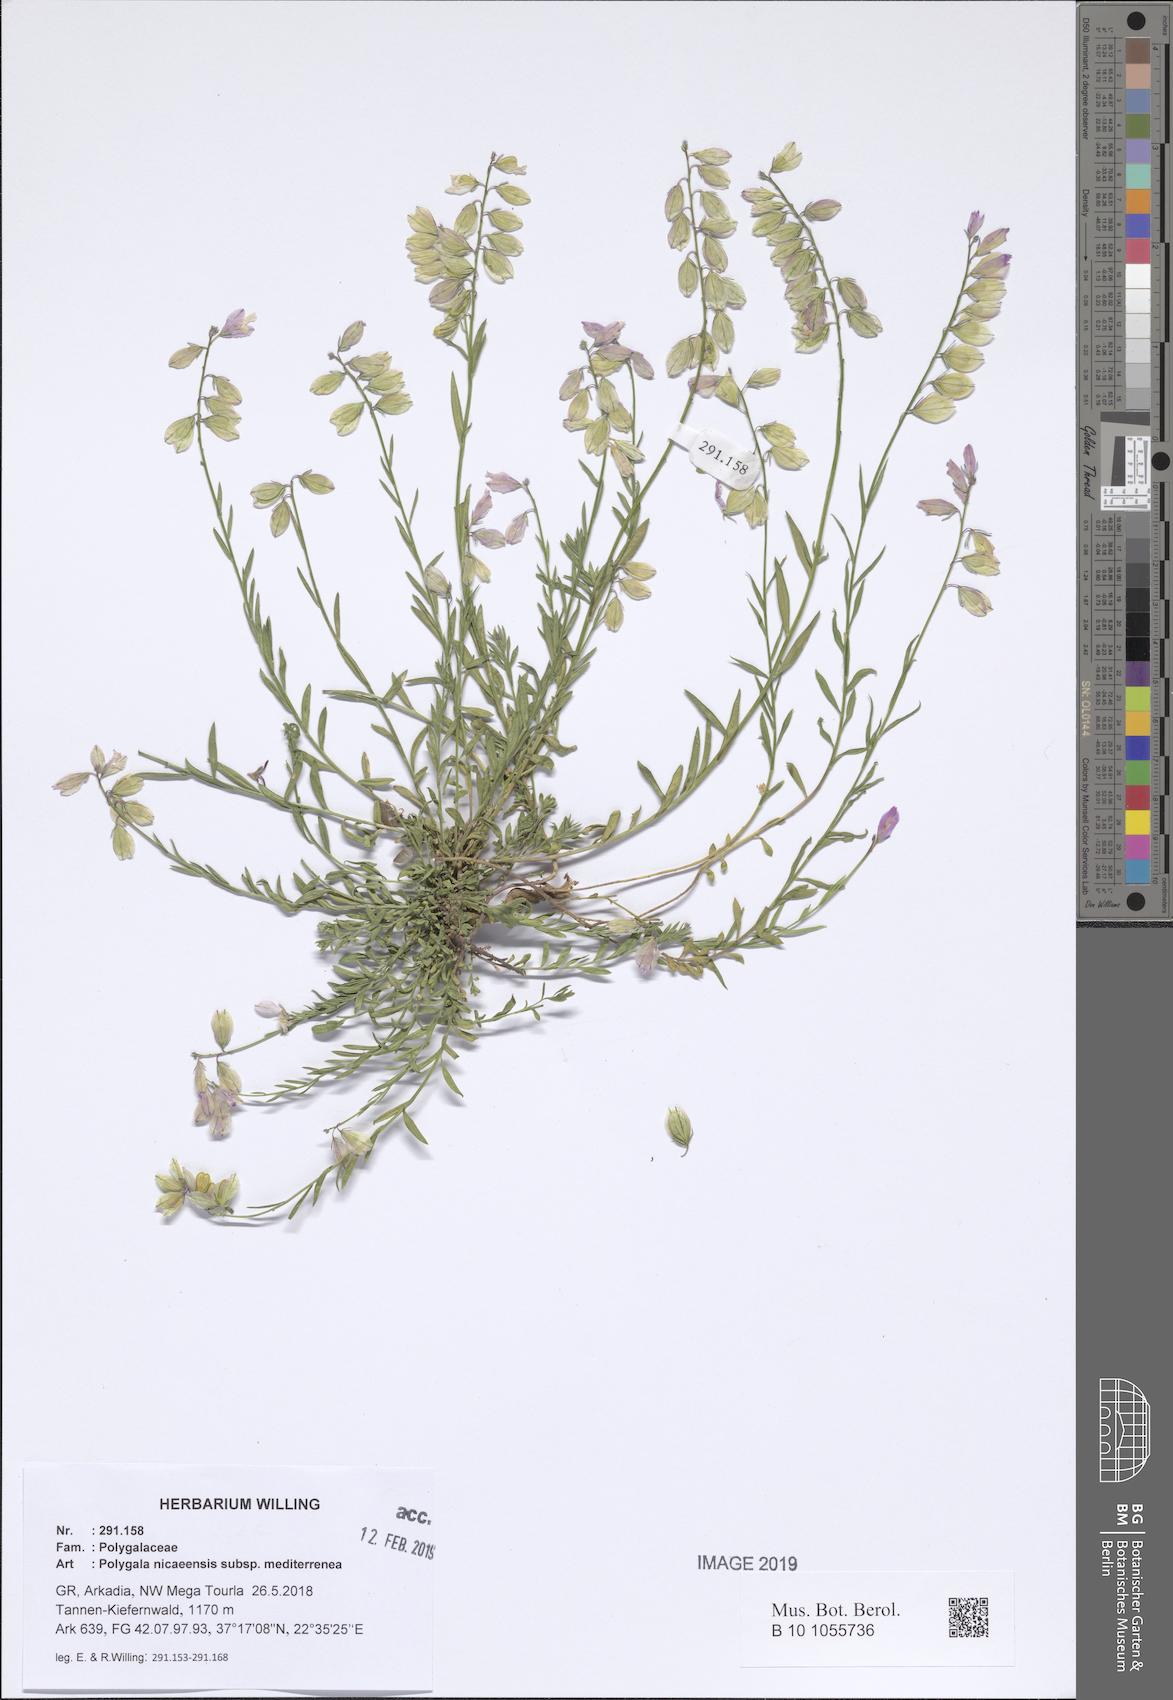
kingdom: Plantae
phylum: Tracheophyta
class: Magnoliopsida
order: Fabales
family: Polygalaceae
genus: Polygala
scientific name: Polygala nicaeensis
